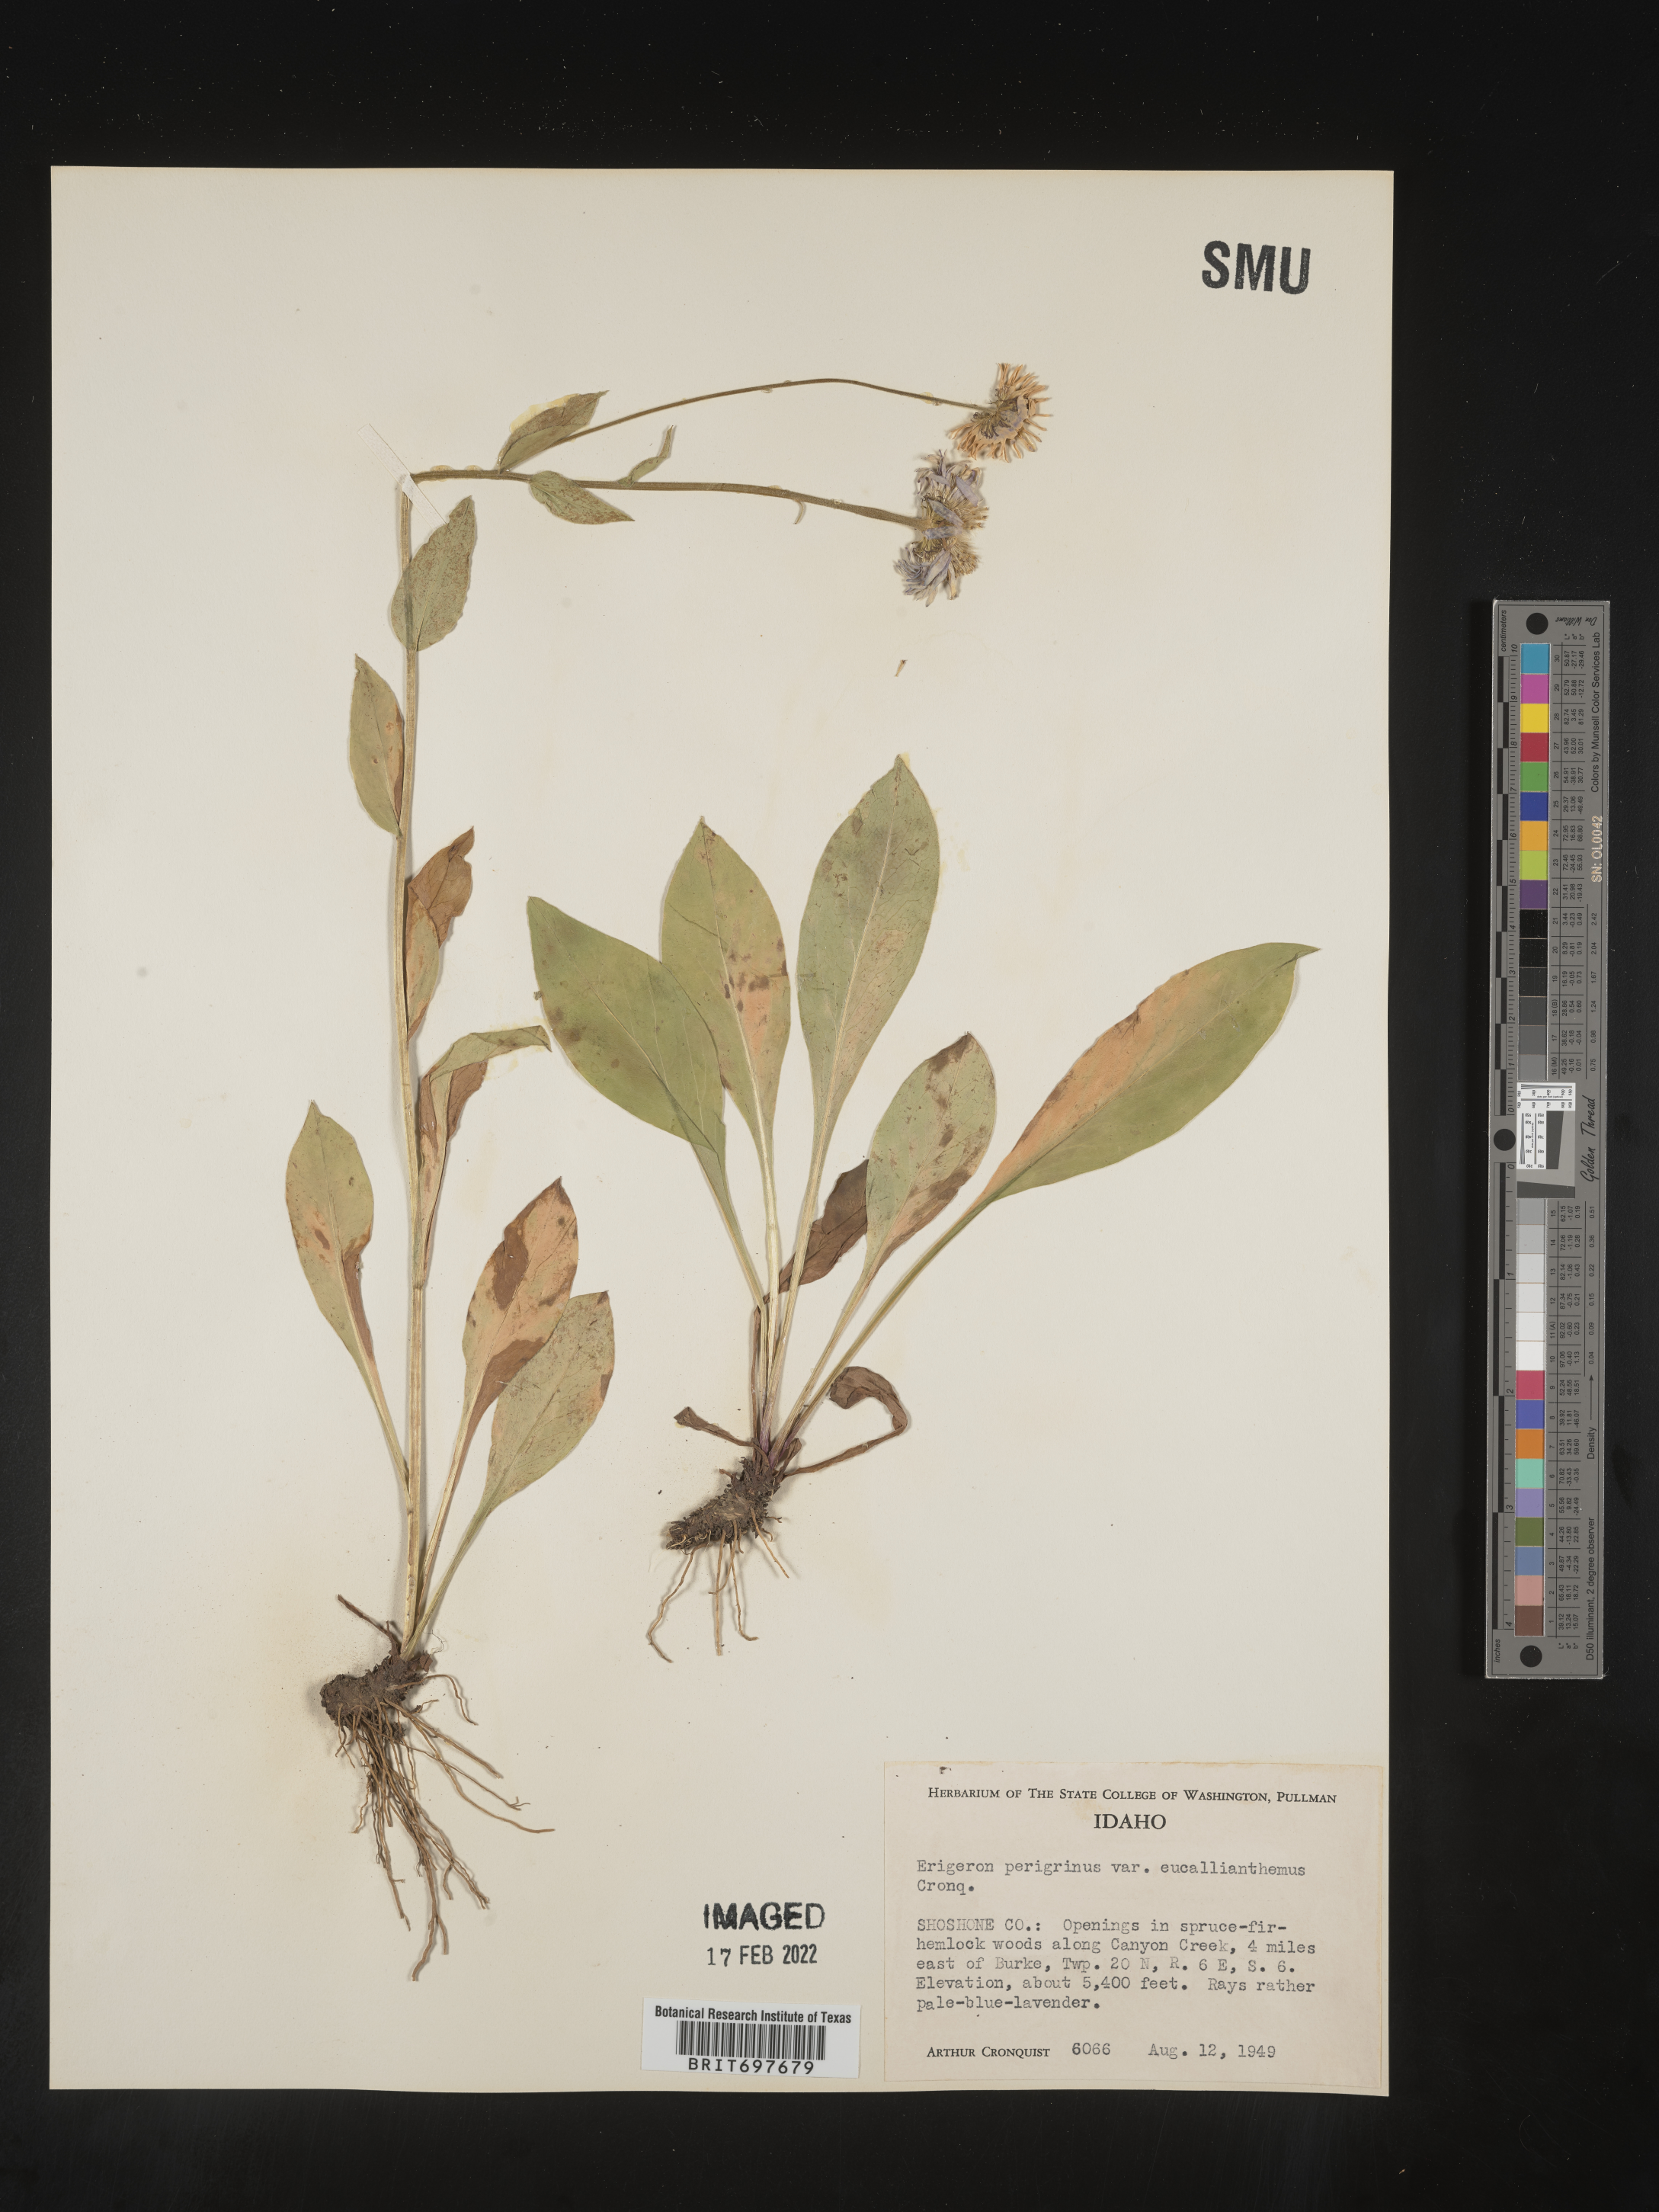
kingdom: Plantae
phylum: Tracheophyta
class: Magnoliopsida
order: Asterales
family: Asteraceae
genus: Erigeron
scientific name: Erigeron glacialis
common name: Subalpine fleabane
